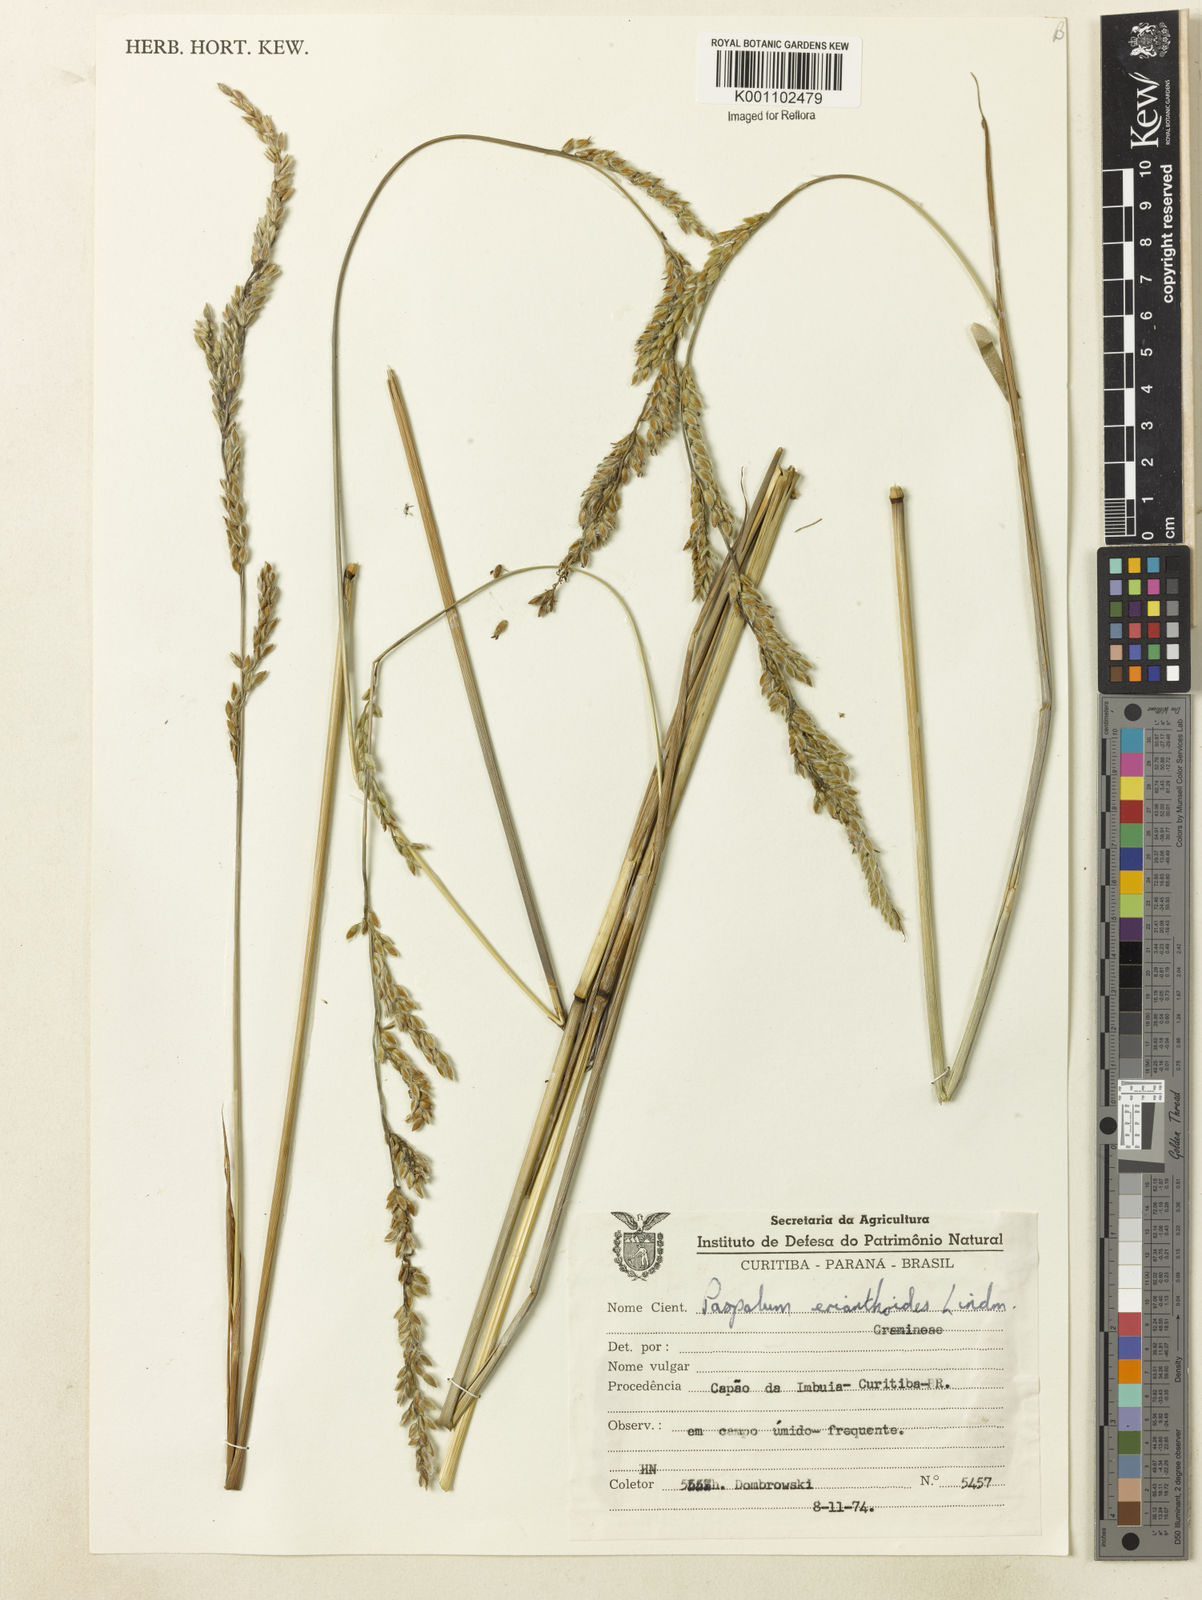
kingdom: Plantae
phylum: Tracheophyta
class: Liliopsida
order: Poales
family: Poaceae
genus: Paspalum
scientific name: Paspalum erianthoides
